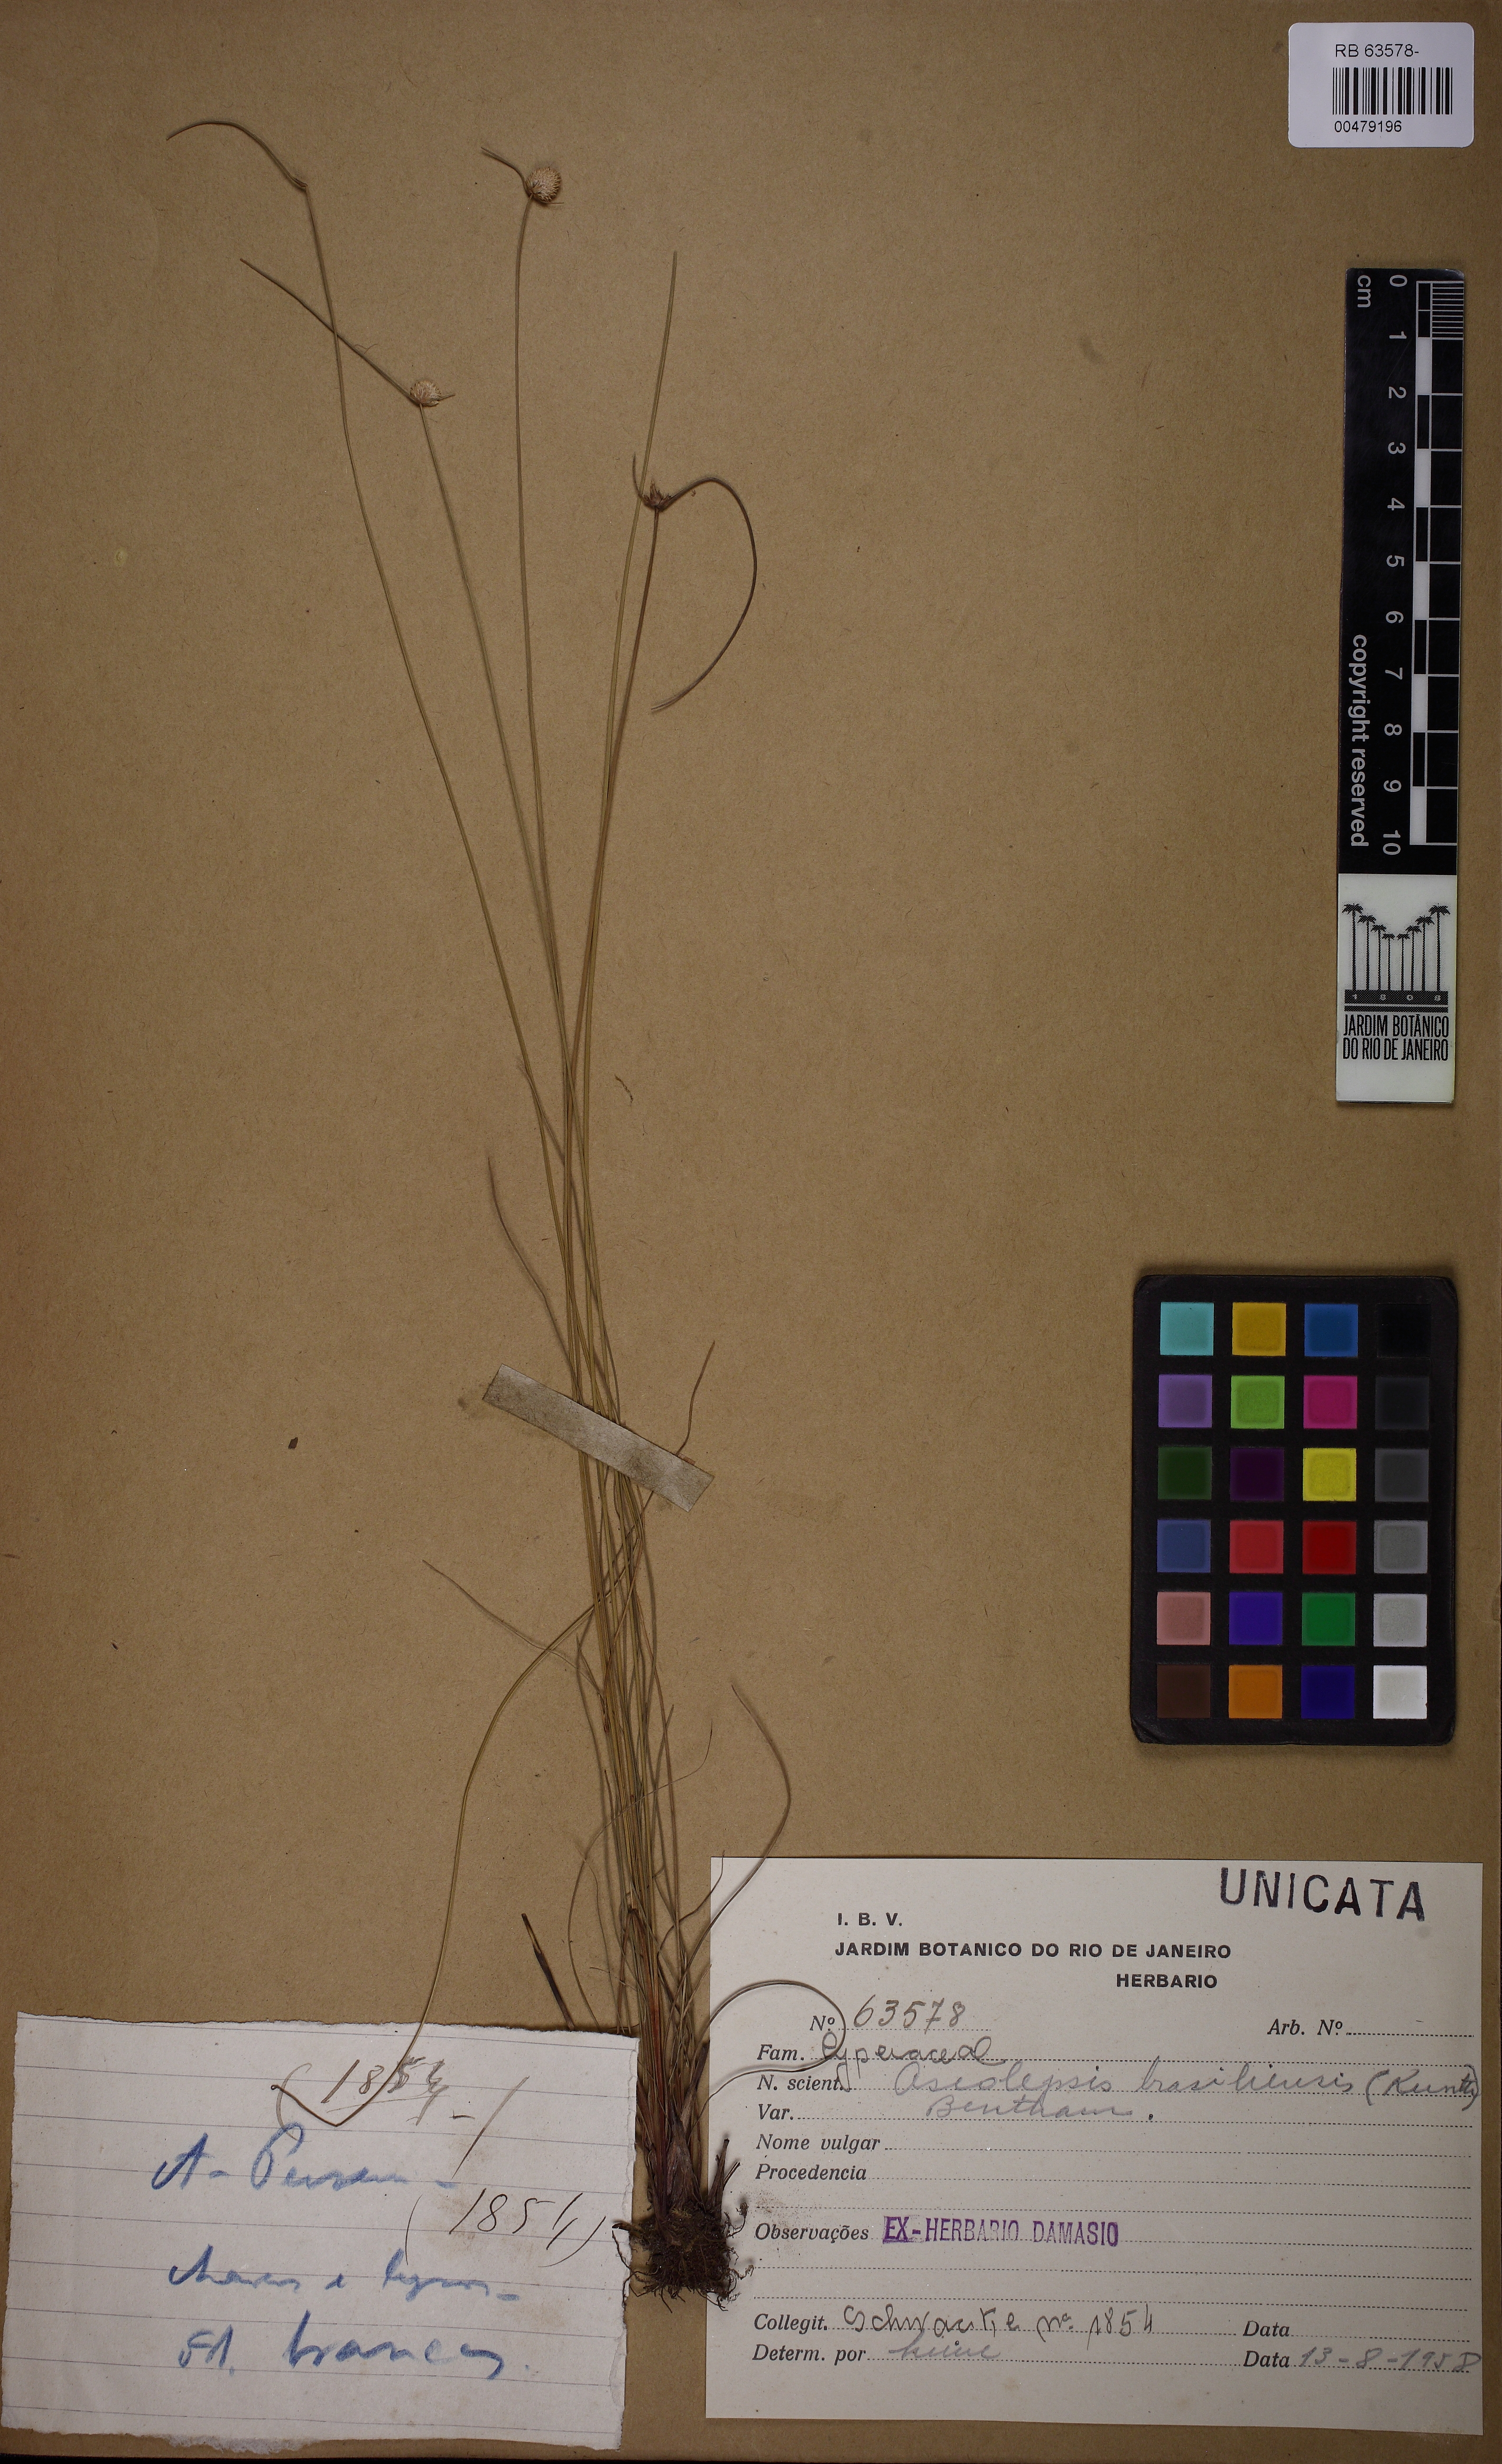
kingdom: Plantae
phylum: Tracheophyta
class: Liliopsida
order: Poales
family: Cyperaceae
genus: Cyperus
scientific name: Cyperus brasiliensis
